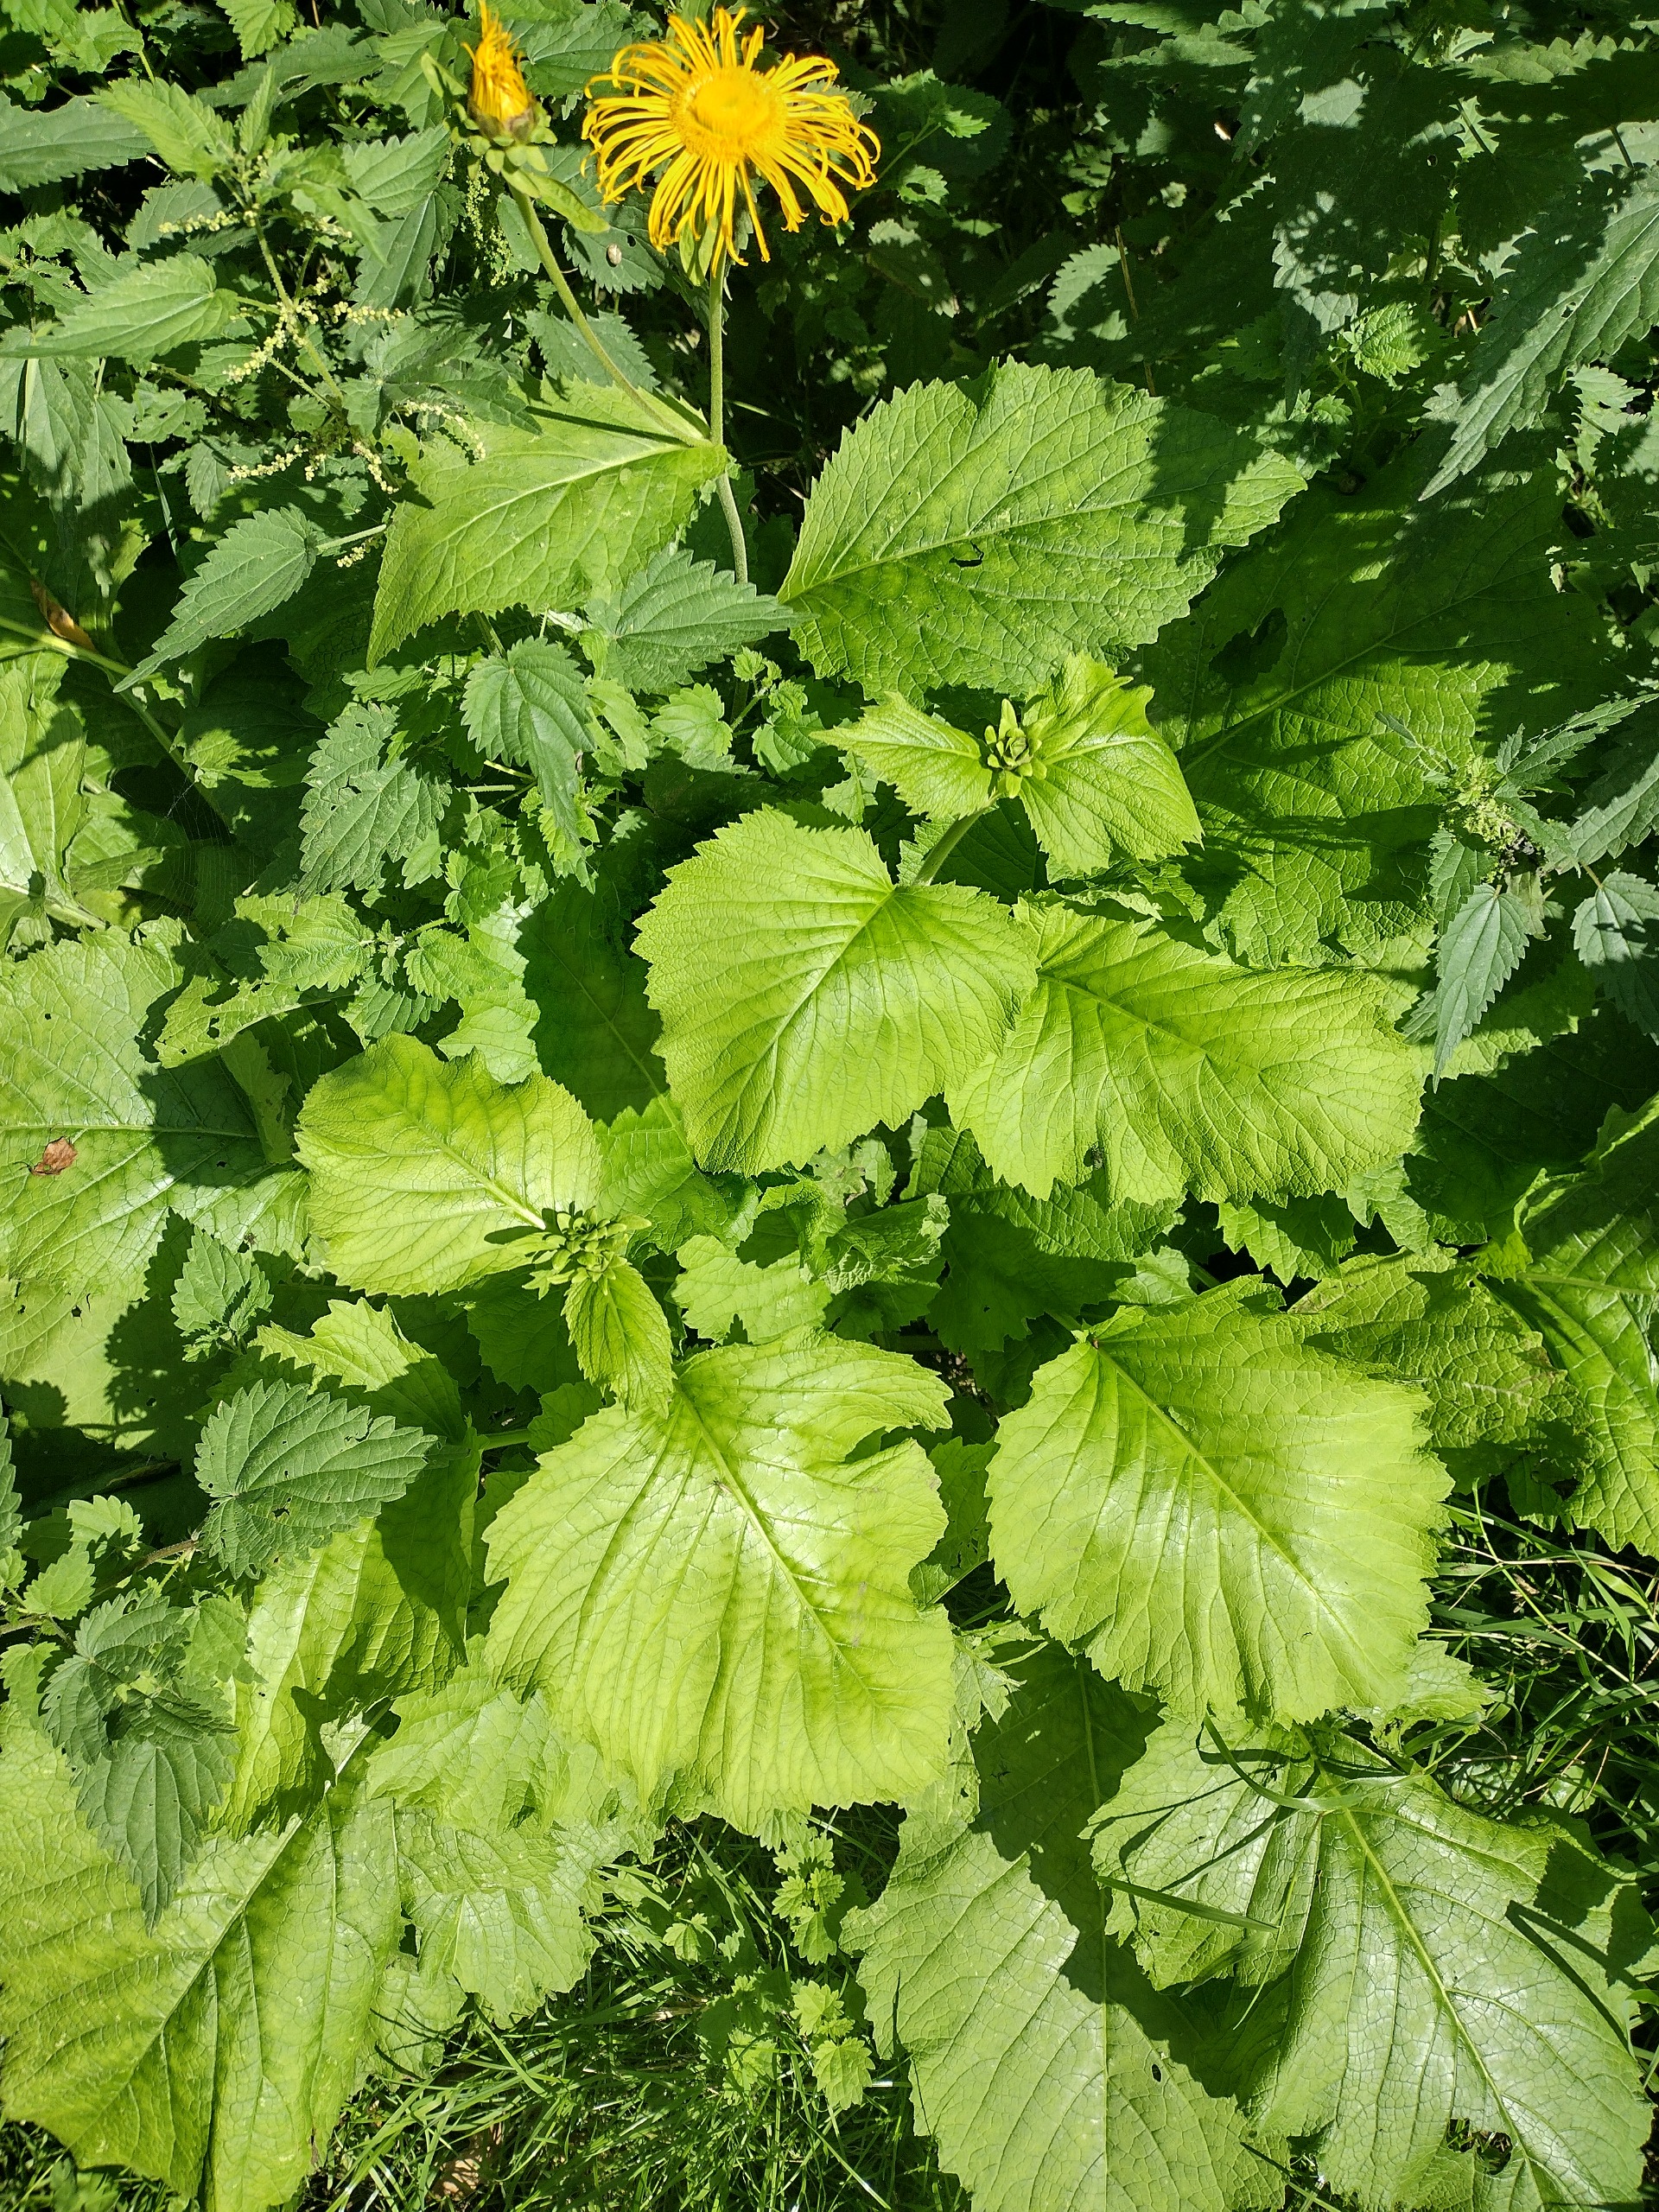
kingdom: Plantae
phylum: Tracheophyta
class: Magnoliopsida
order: Asterales
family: Asteraceae
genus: Telekia
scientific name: Telekia speciosa
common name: Tusindstråle
